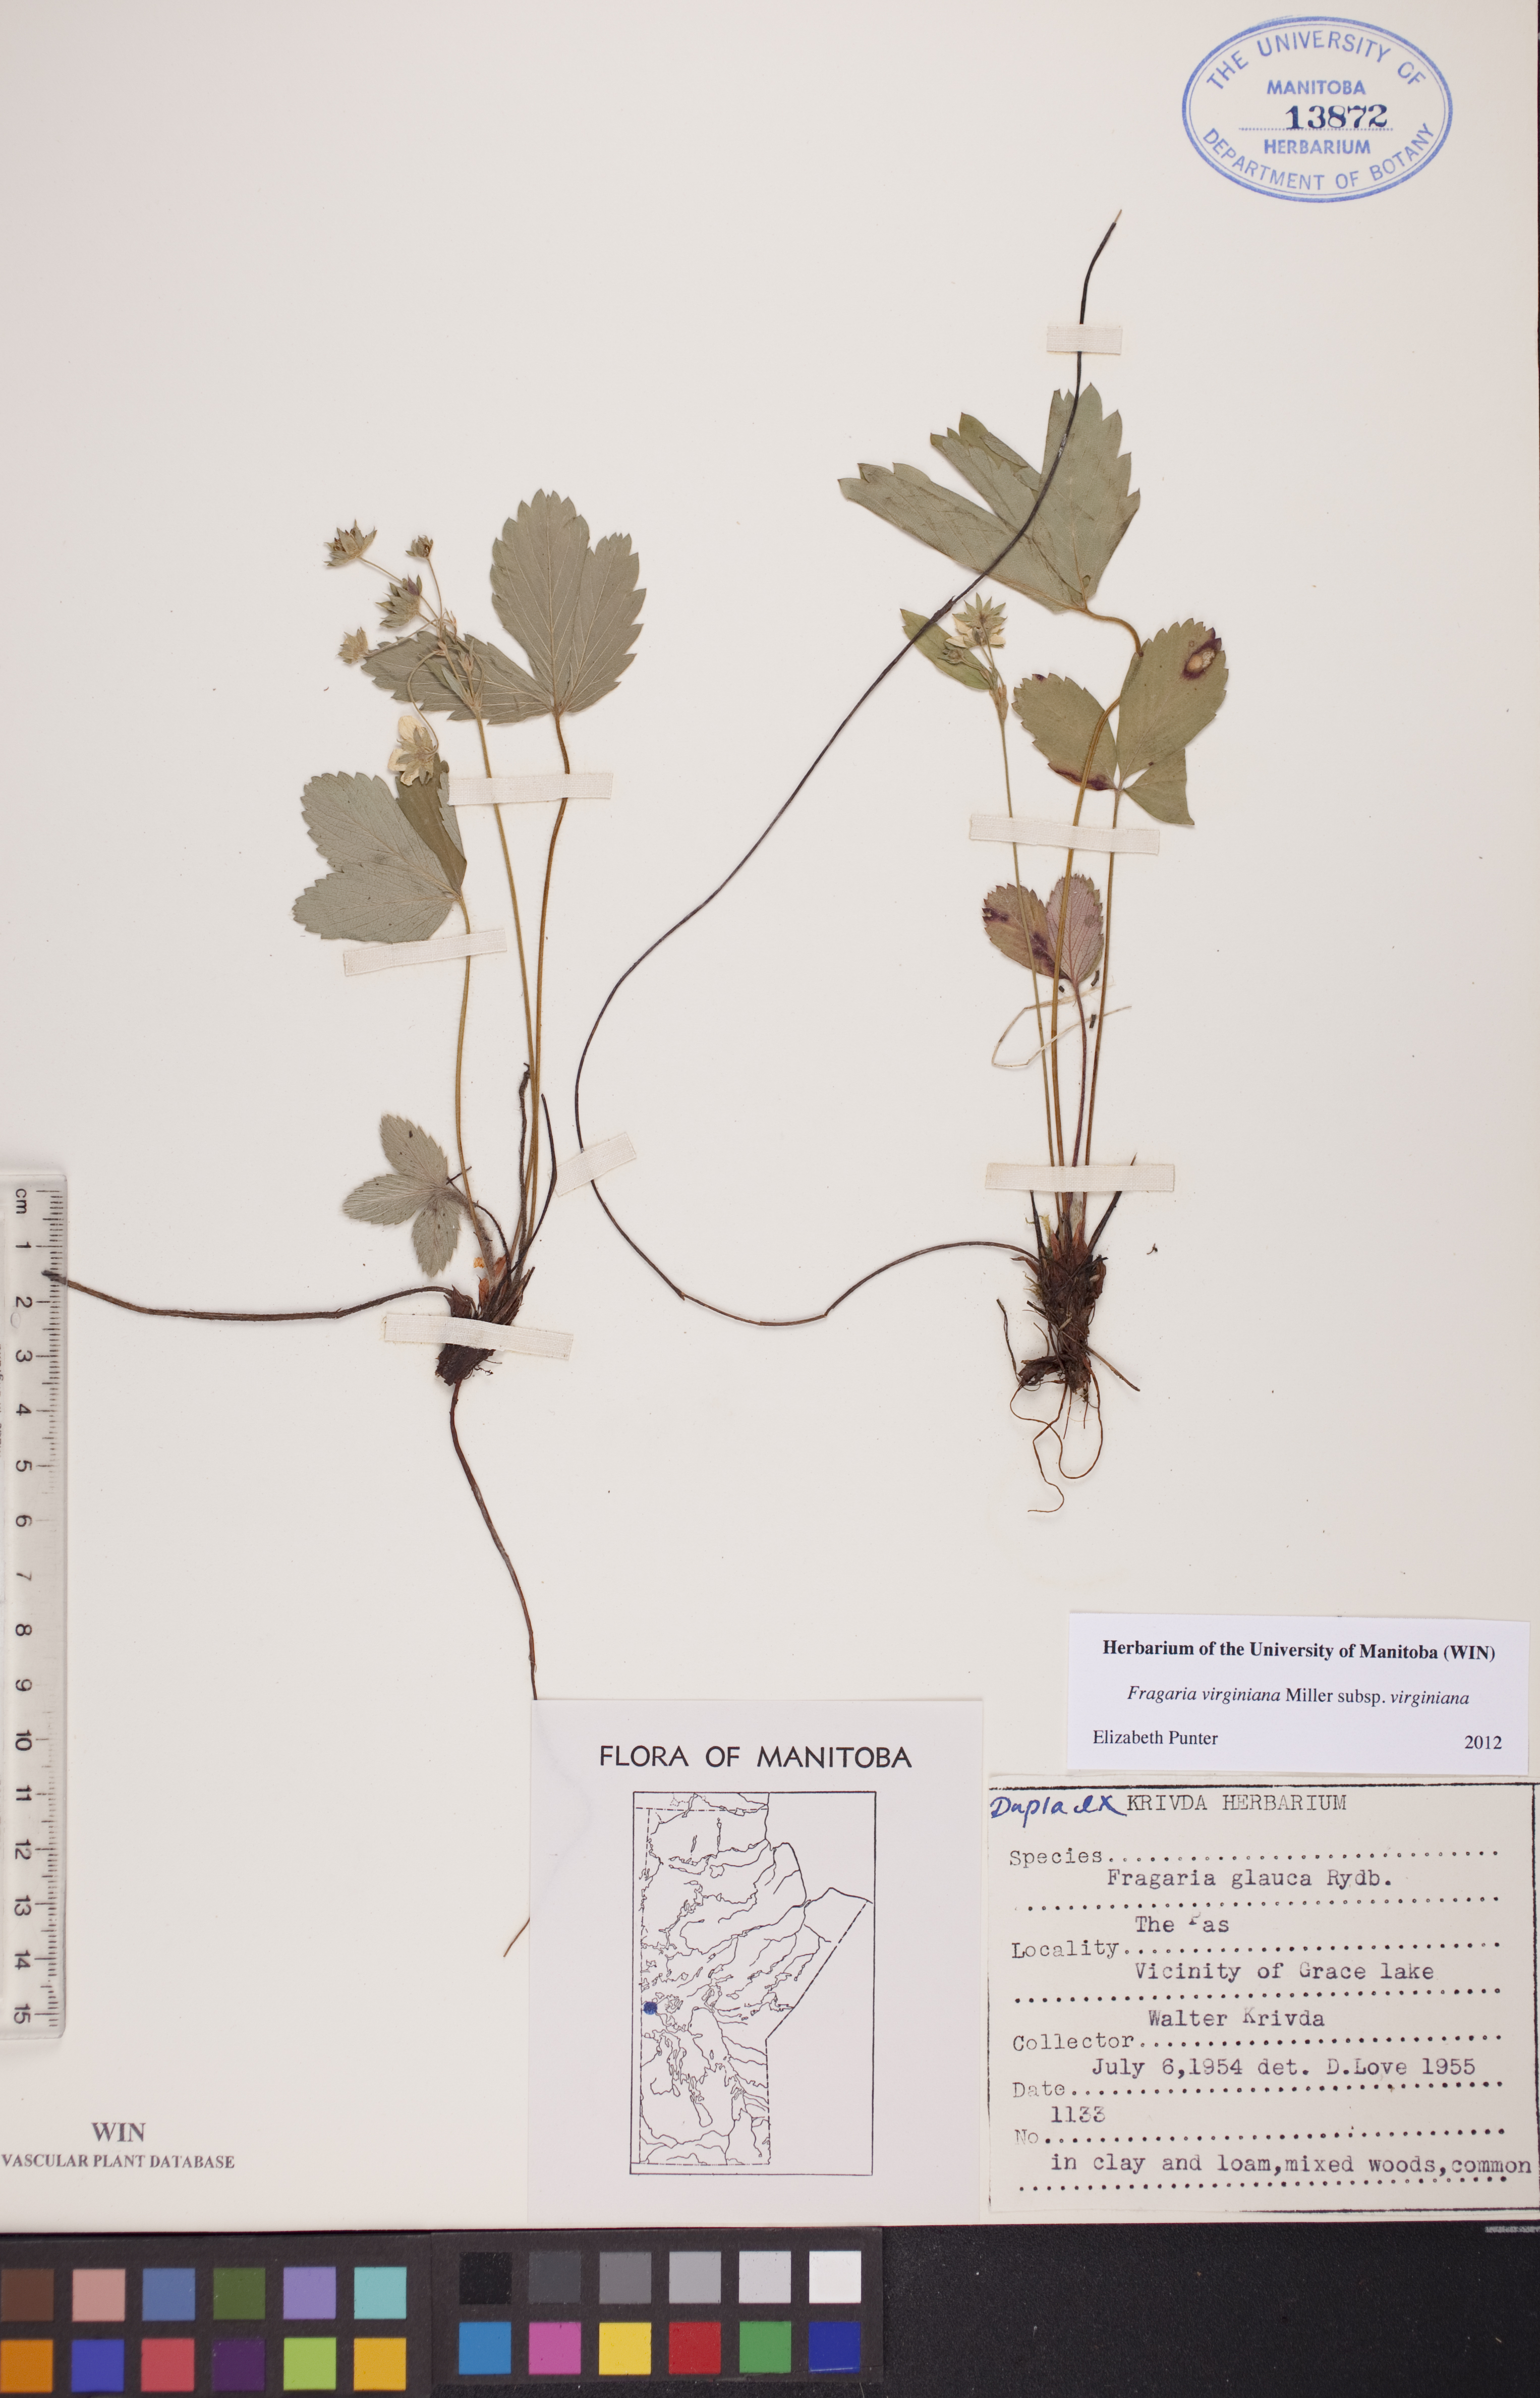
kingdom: Plantae
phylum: Tracheophyta
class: Magnoliopsida
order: Rosales
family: Rosaceae
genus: Fragaria
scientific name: Fragaria virginiana
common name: Thickleaved wild strawberry
